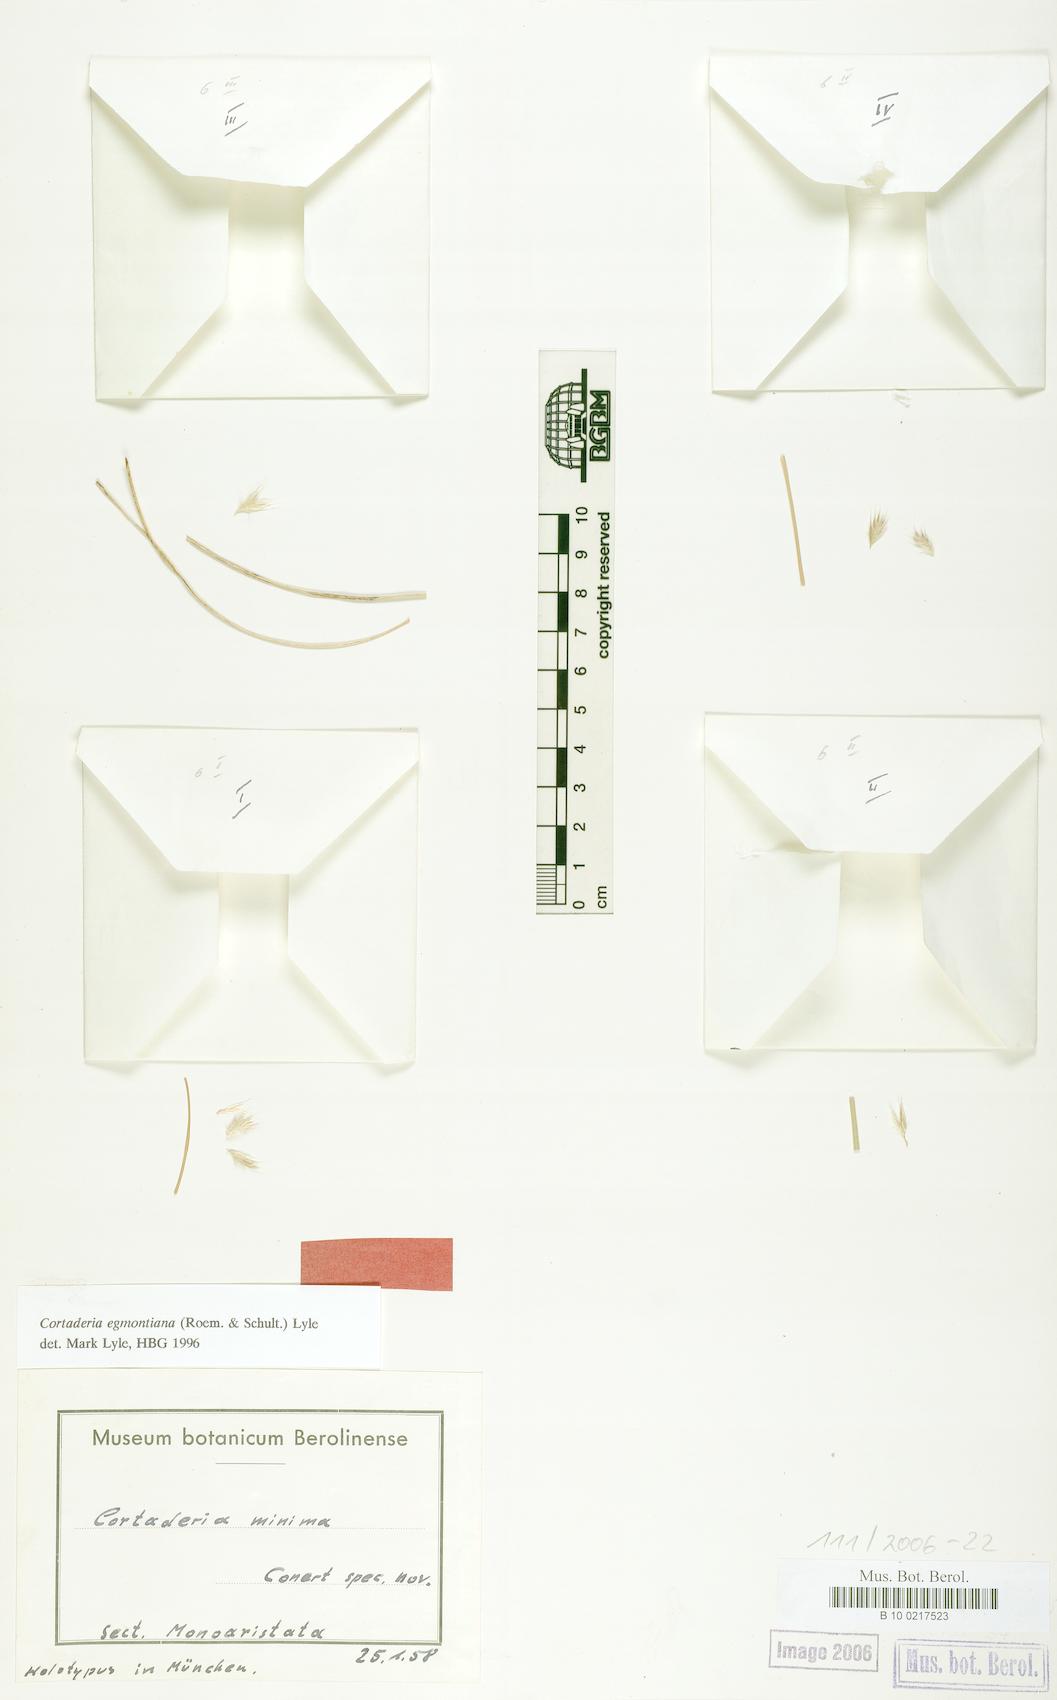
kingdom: Plantae
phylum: Tracheophyta
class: Liliopsida
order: Poales
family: Poaceae
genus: Cortaderia
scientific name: Cortaderia egmontiana
